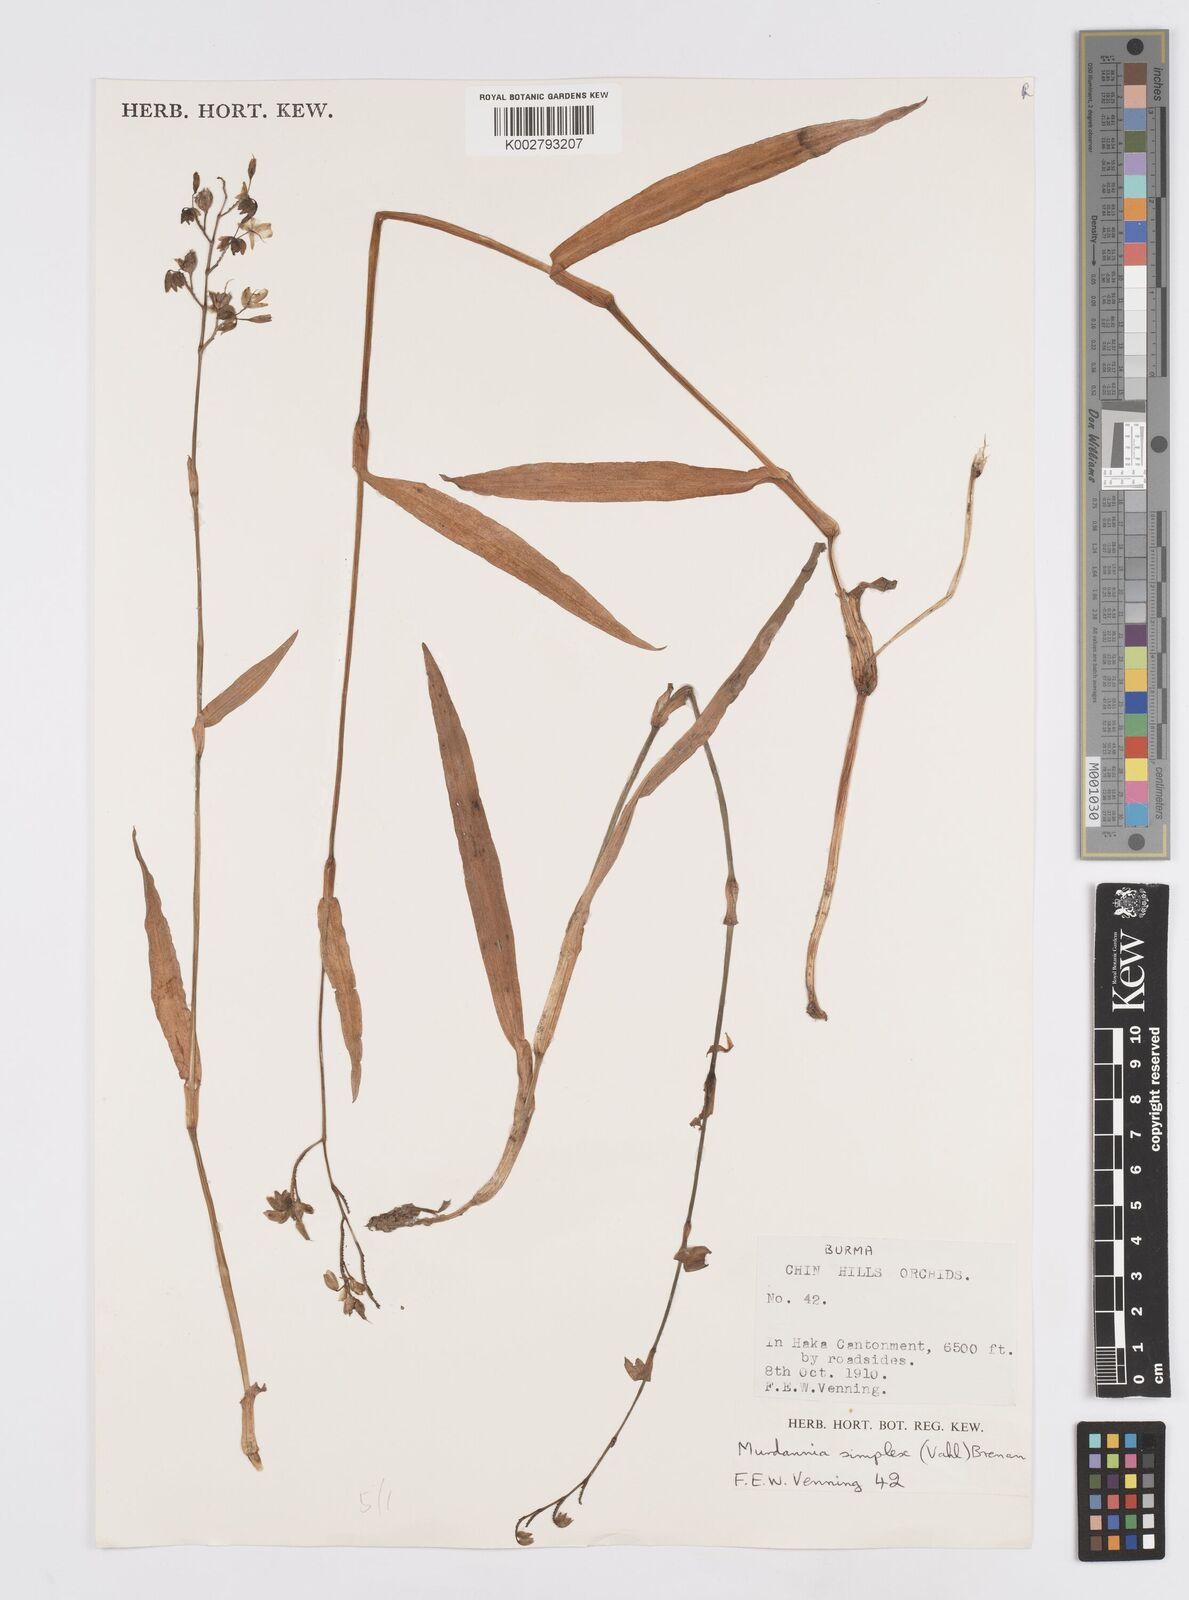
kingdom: Plantae
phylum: Tracheophyta
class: Liliopsida
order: Commelinales
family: Commelinaceae
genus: Murdannia
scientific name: Murdannia simplex
